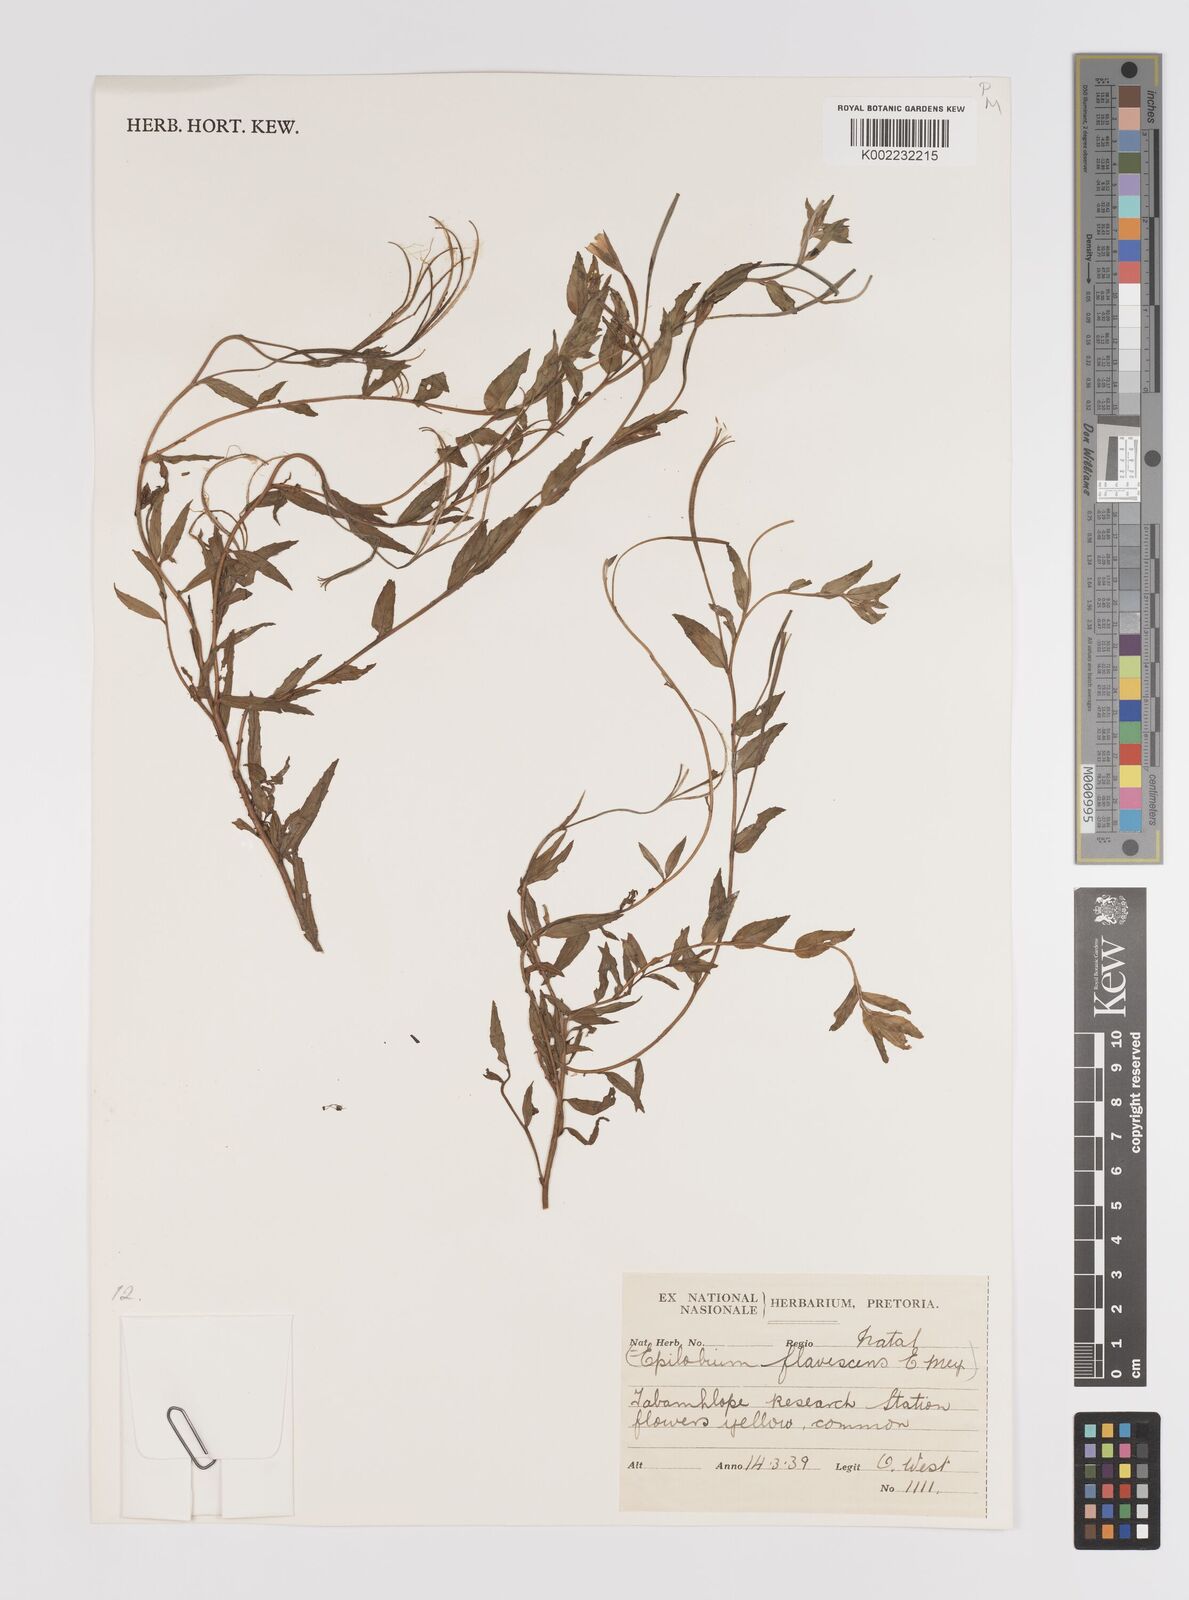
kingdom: Plantae
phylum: Tracheophyta
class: Magnoliopsida
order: Myrtales
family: Onagraceae
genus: Epilobium
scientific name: Epilobium capense
